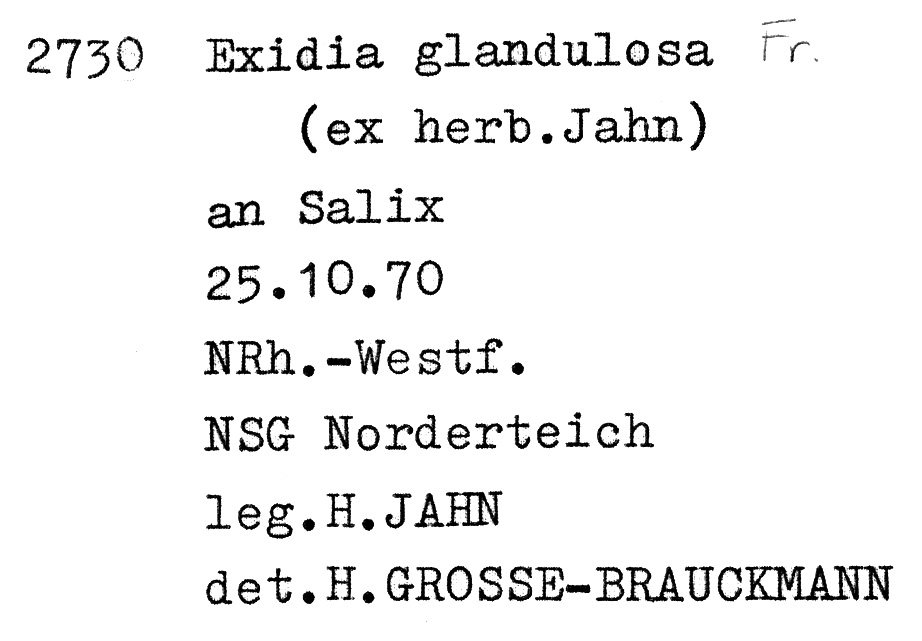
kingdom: Fungi
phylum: Basidiomycota
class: Agaricomycetes
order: Auriculariales
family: Auriculariaceae
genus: Exidia
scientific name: Exidia glandulosa
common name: Witches' butter
